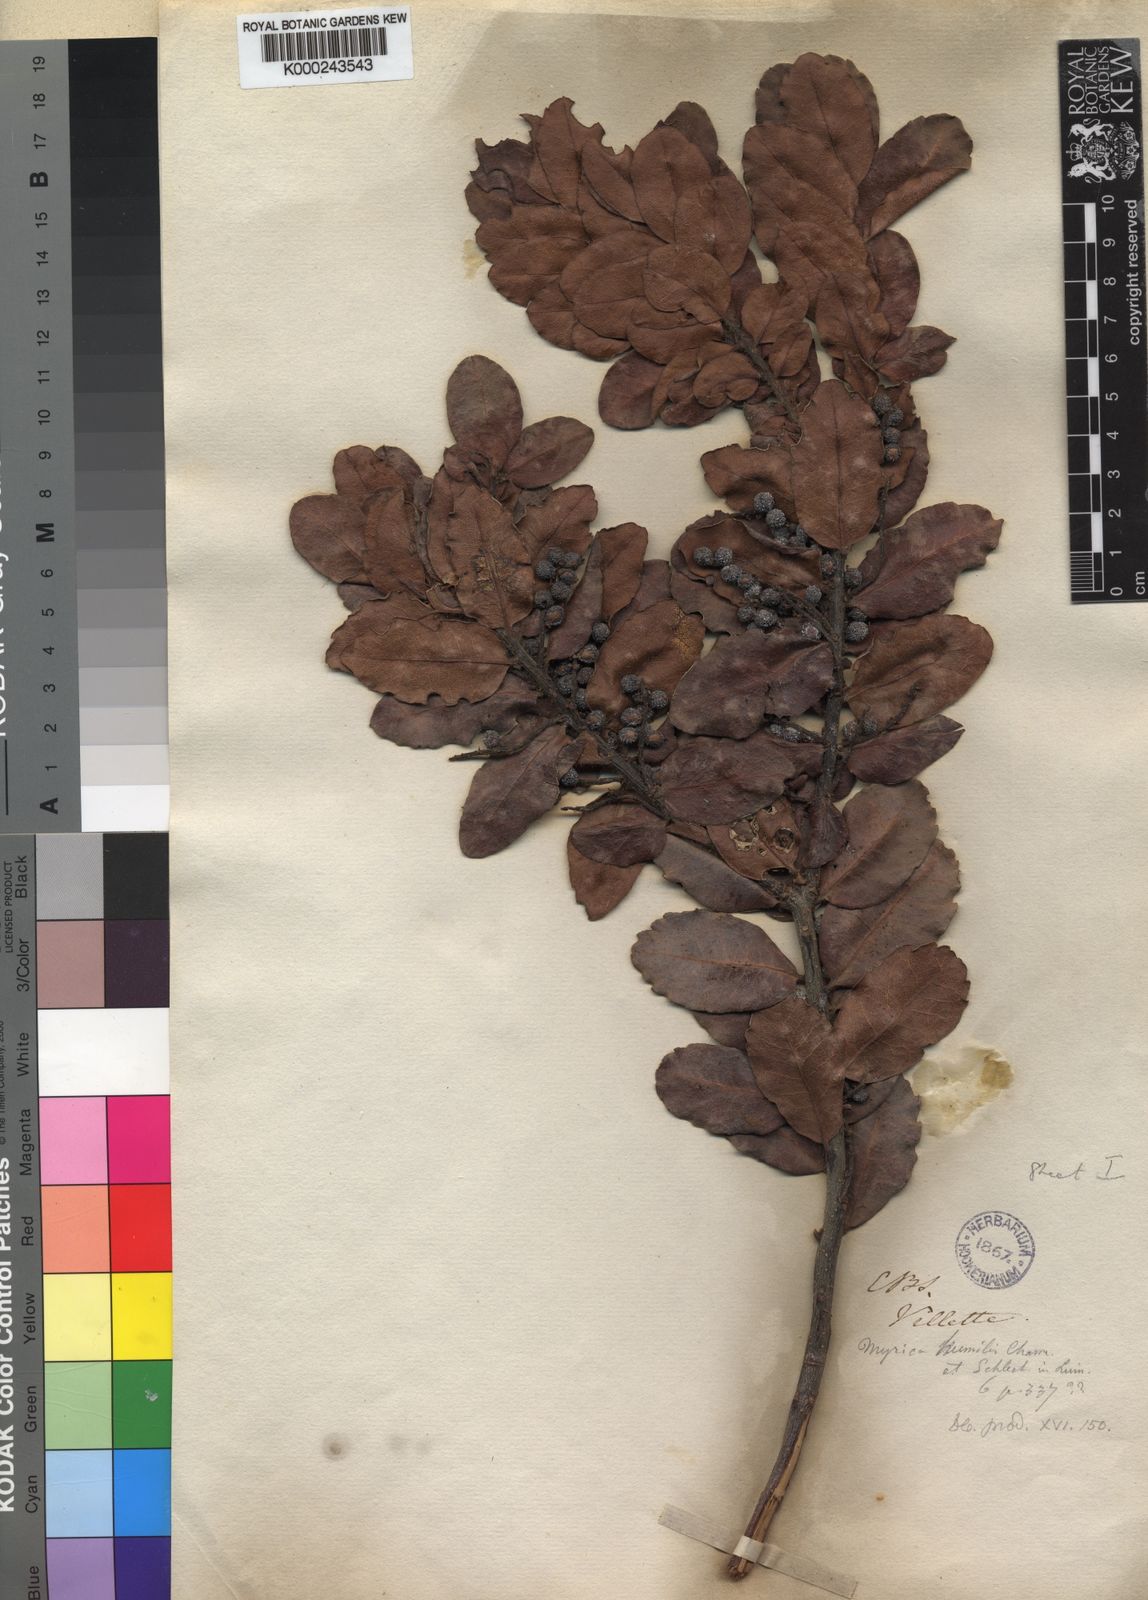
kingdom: Plantae
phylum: Tracheophyta
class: Magnoliopsida
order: Fagales
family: Myricaceae
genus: Morella
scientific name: Morella humilis
